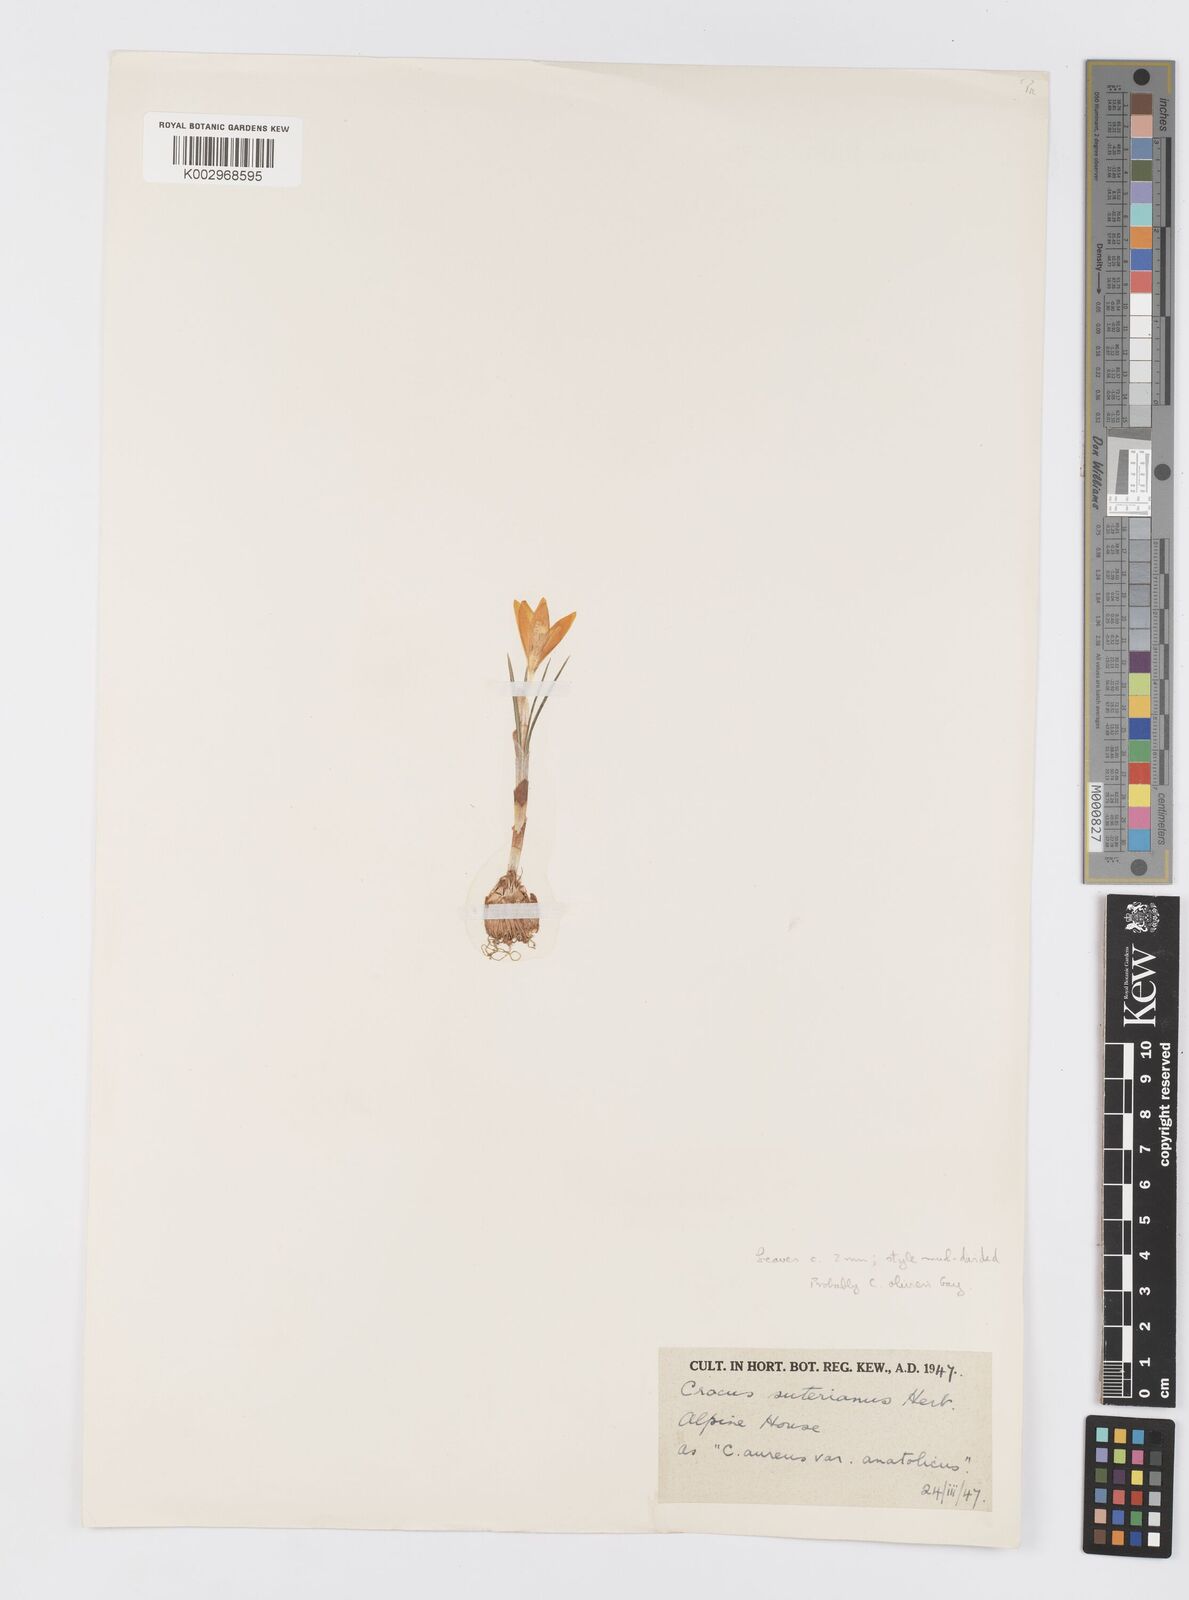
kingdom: Plantae
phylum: Tracheophyta
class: Liliopsida
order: Asparagales
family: Iridaceae
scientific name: Iridaceae
